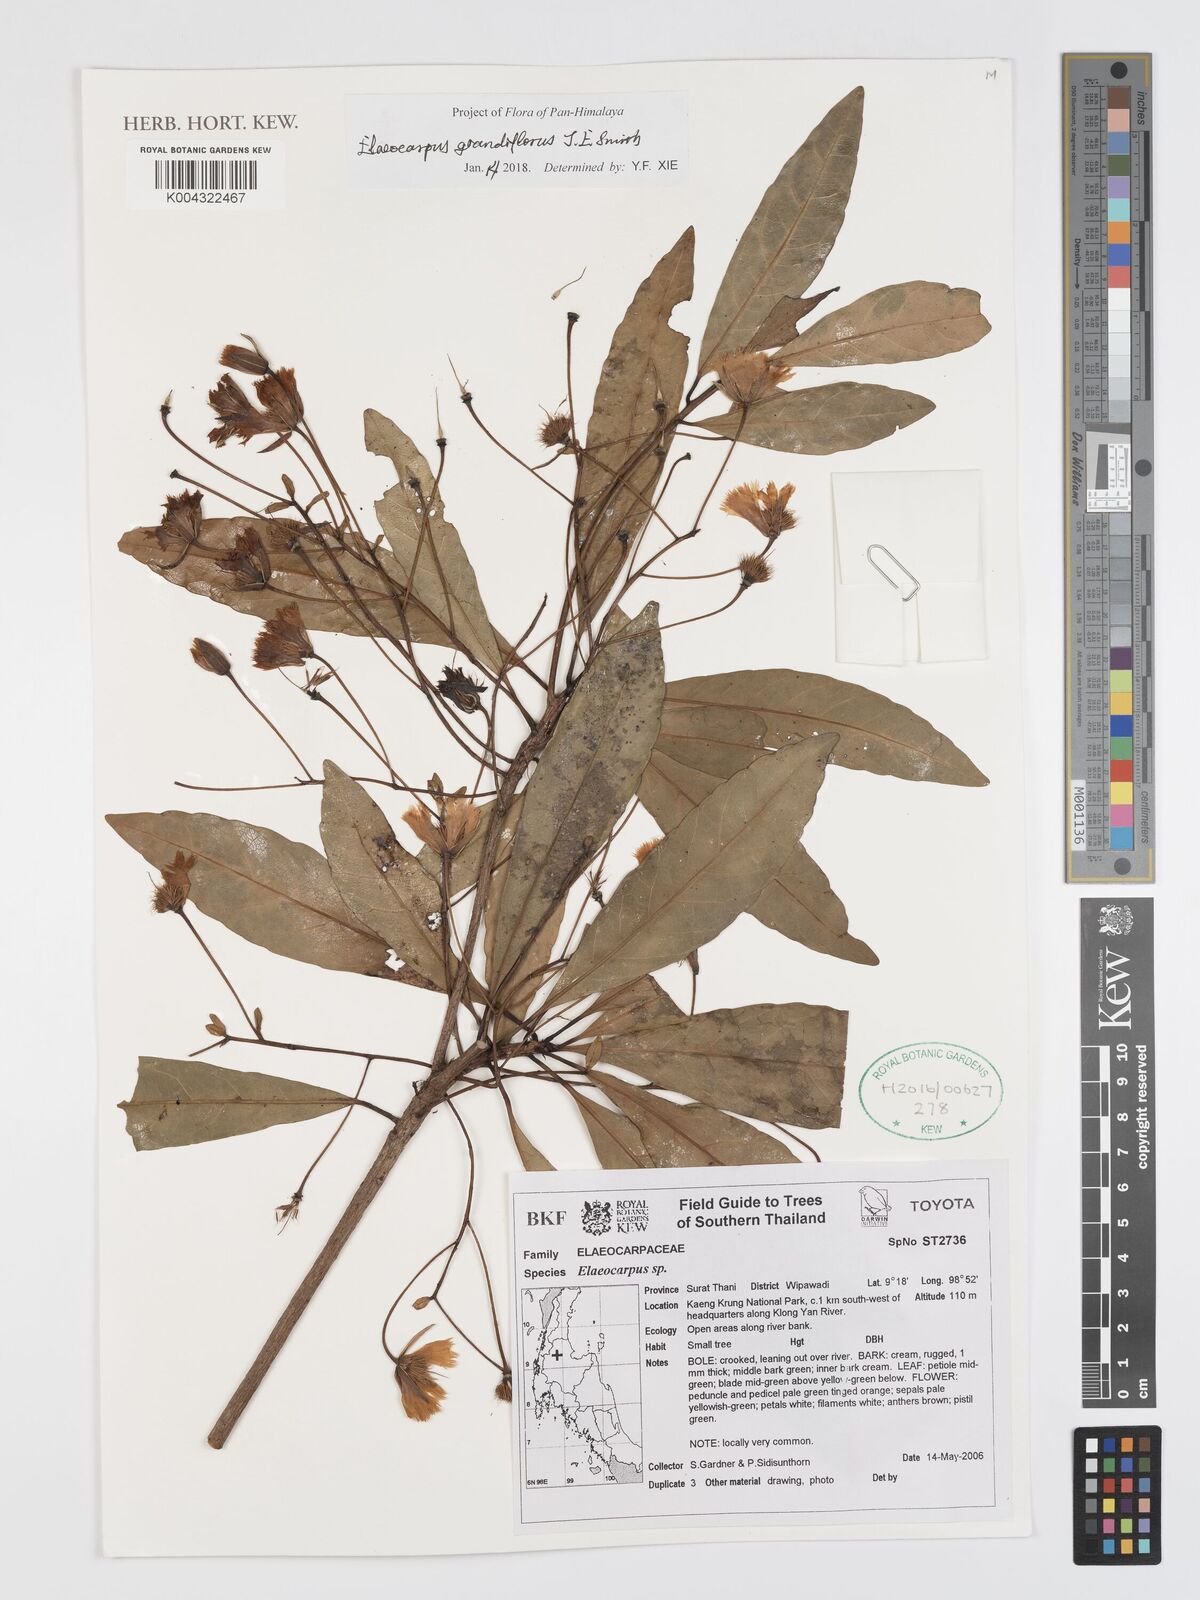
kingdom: Plantae
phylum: Tracheophyta
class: Magnoliopsida
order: Oxalidales
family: Elaeocarpaceae
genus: Elaeocarpus
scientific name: Elaeocarpus grandiflorus
